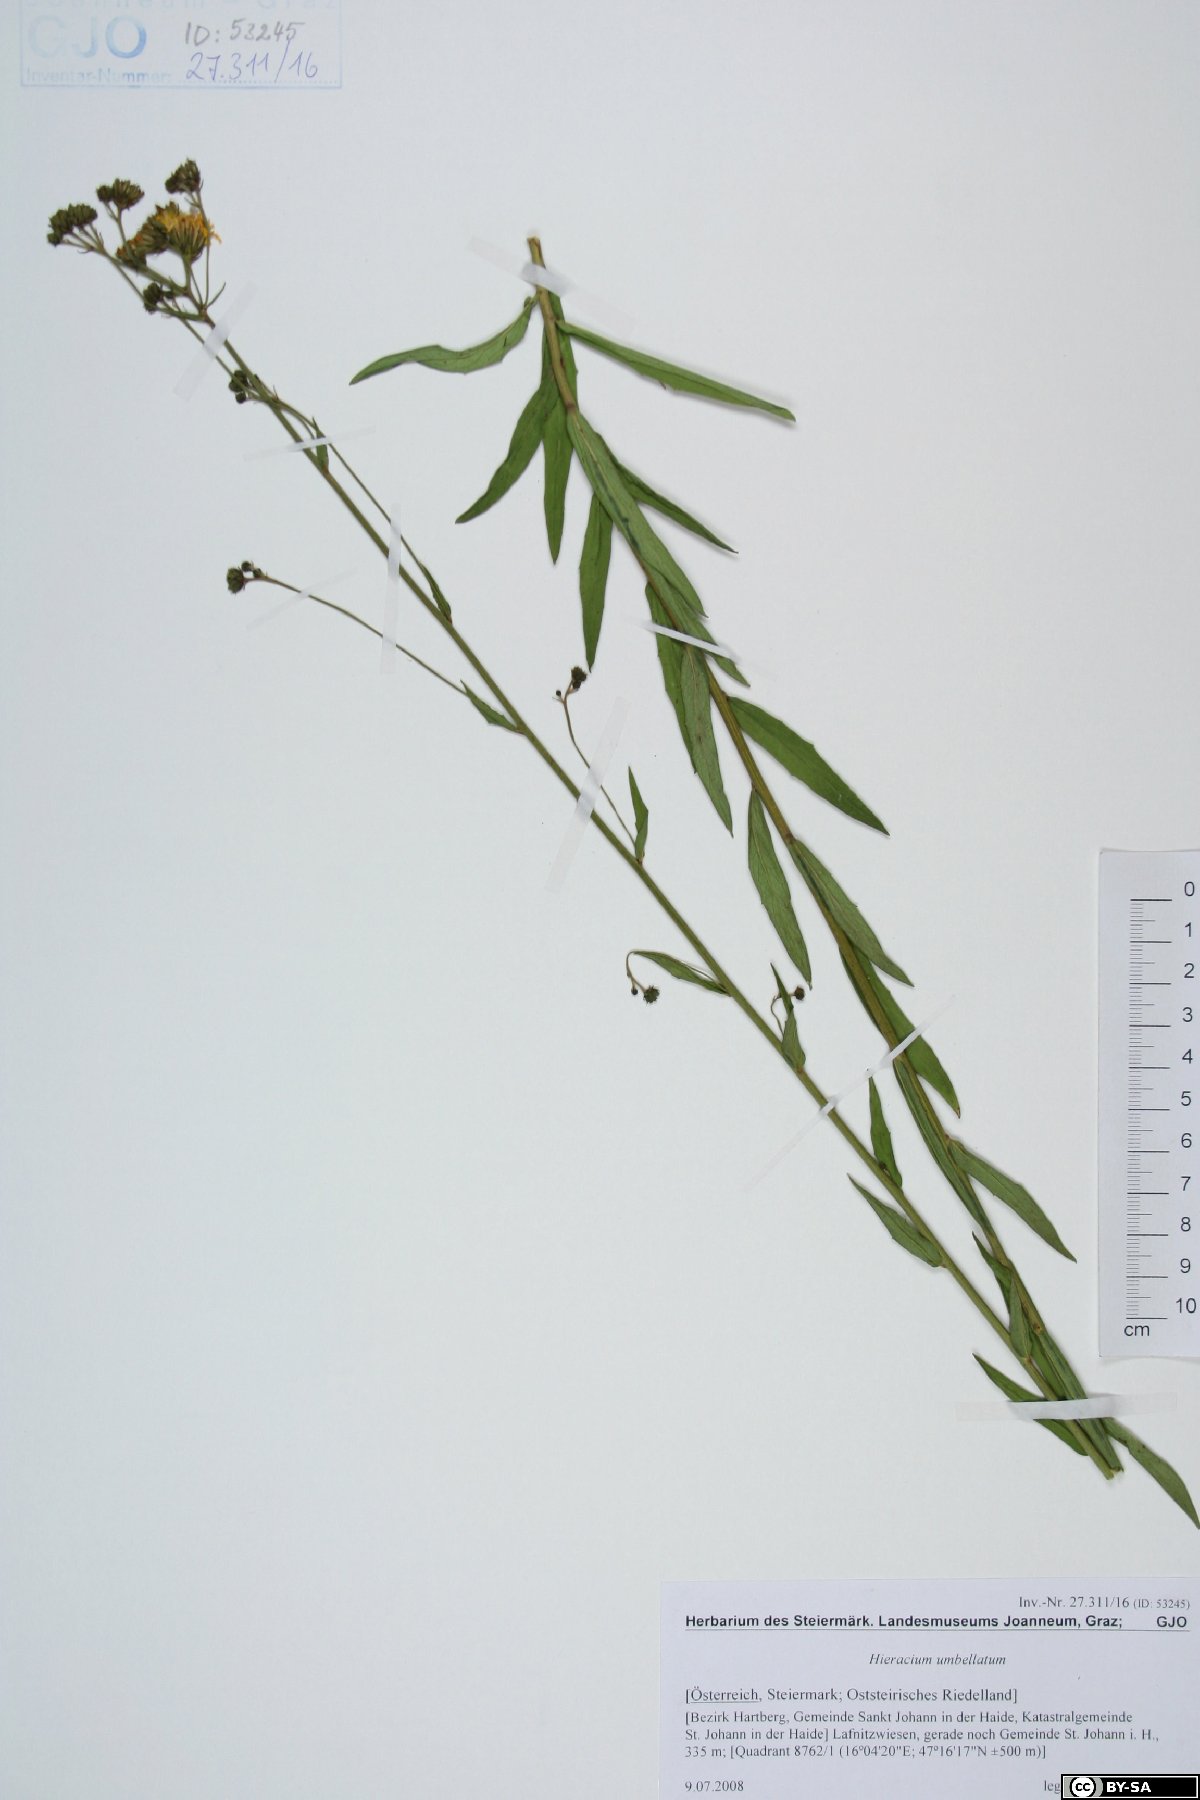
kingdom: Plantae
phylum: Tracheophyta
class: Magnoliopsida
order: Asterales
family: Asteraceae
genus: Hieracium
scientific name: Hieracium umbellatum
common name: Northern hawkweed
